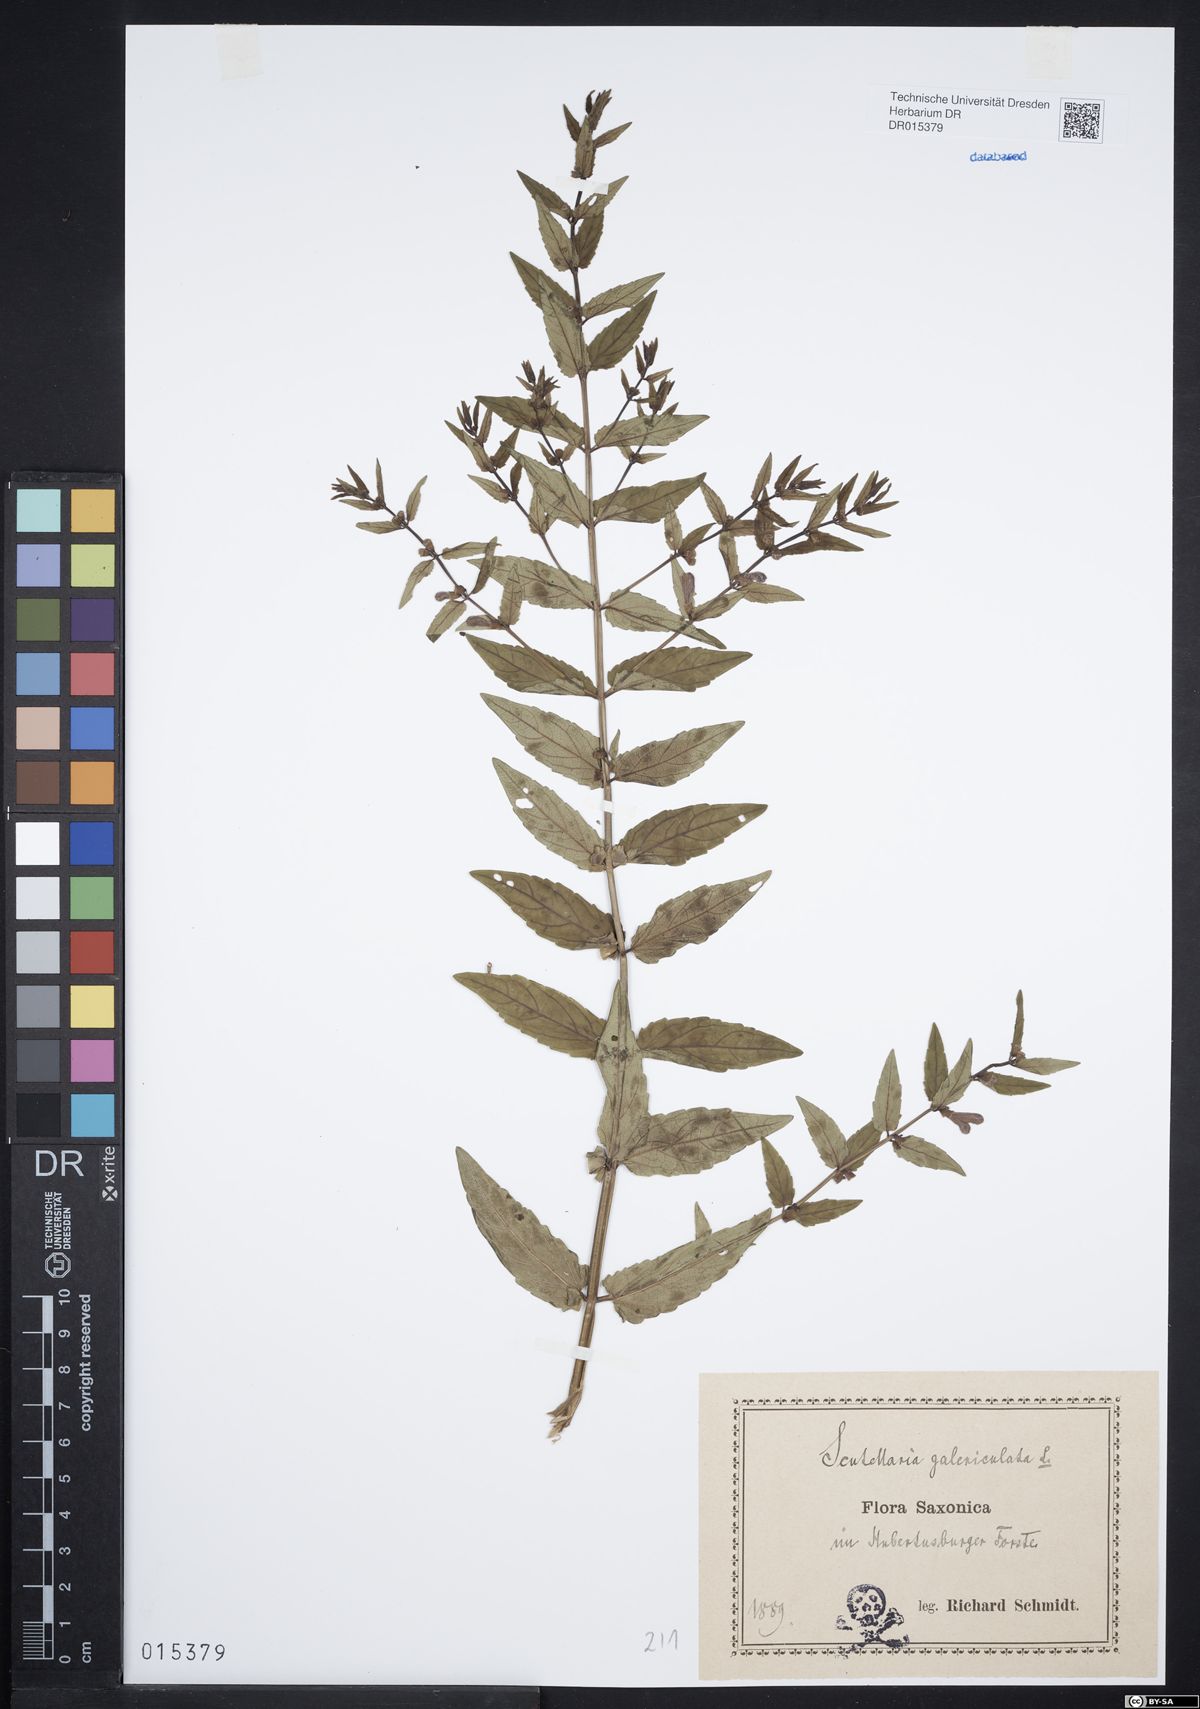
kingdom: Plantae
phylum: Tracheophyta
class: Magnoliopsida
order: Lamiales
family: Lamiaceae
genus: Scutellaria
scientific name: Scutellaria galericulata
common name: Skullcap
